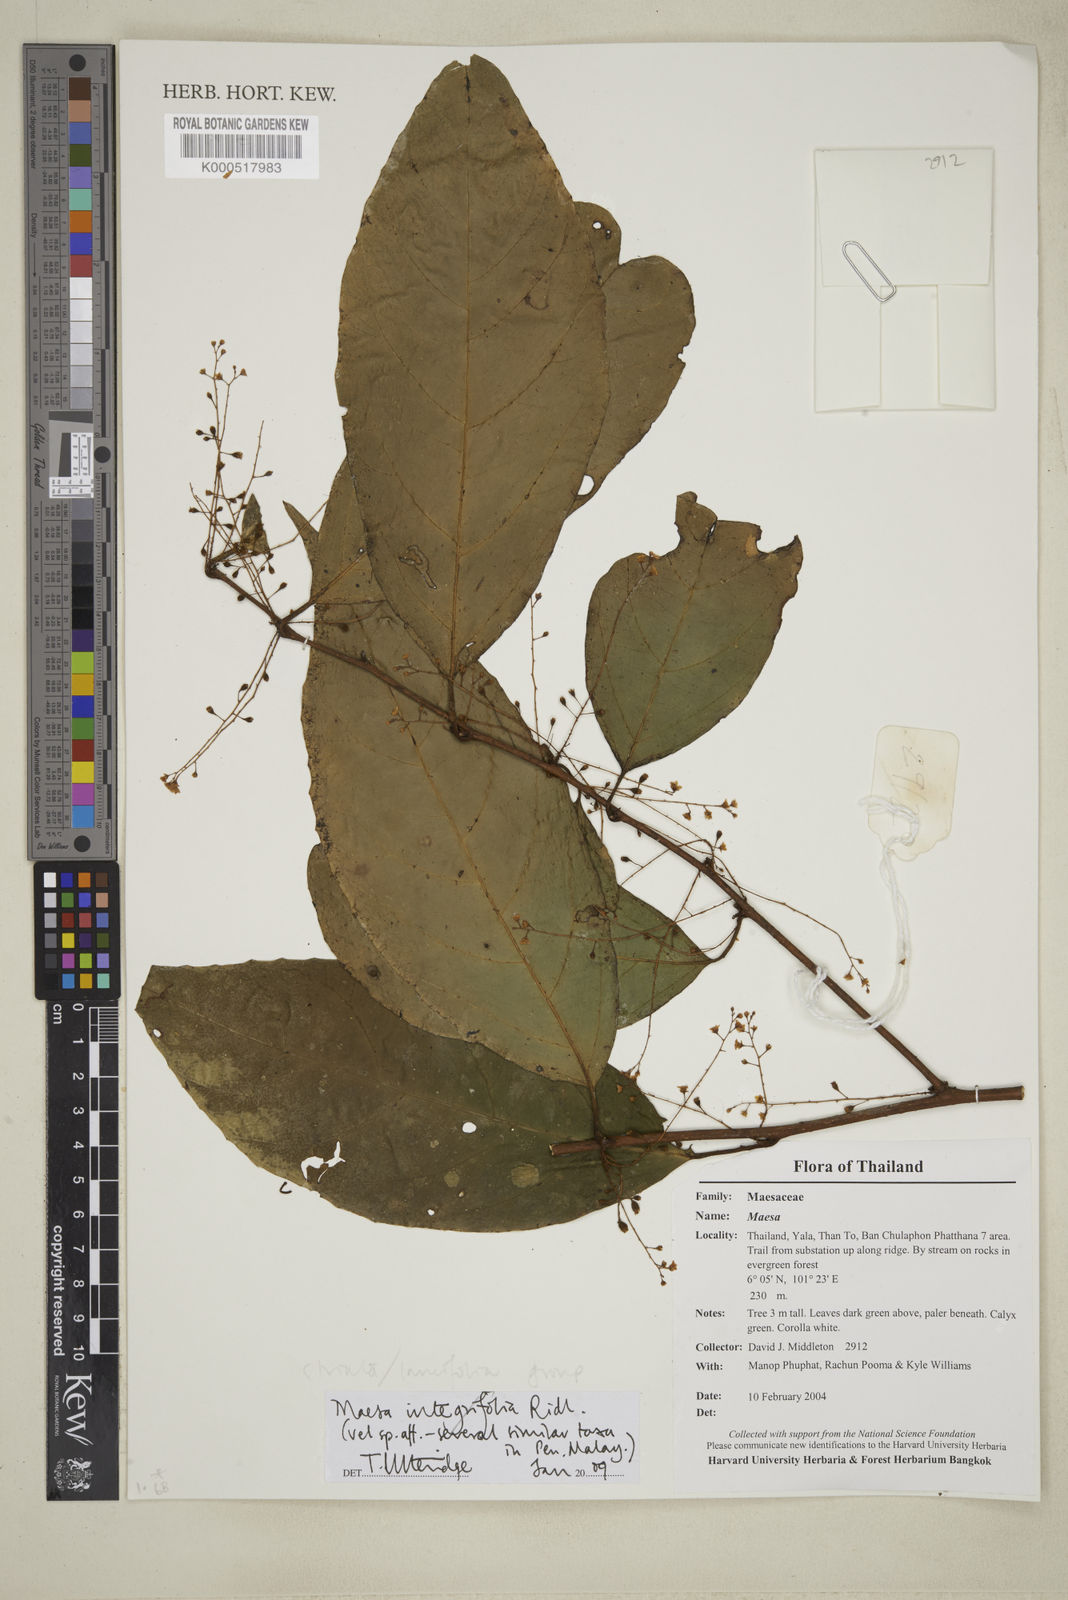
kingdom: Plantae
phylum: Tracheophyta
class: Magnoliopsida
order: Ericales
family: Primulaceae
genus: Maesa
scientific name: Maesa integrifolia
